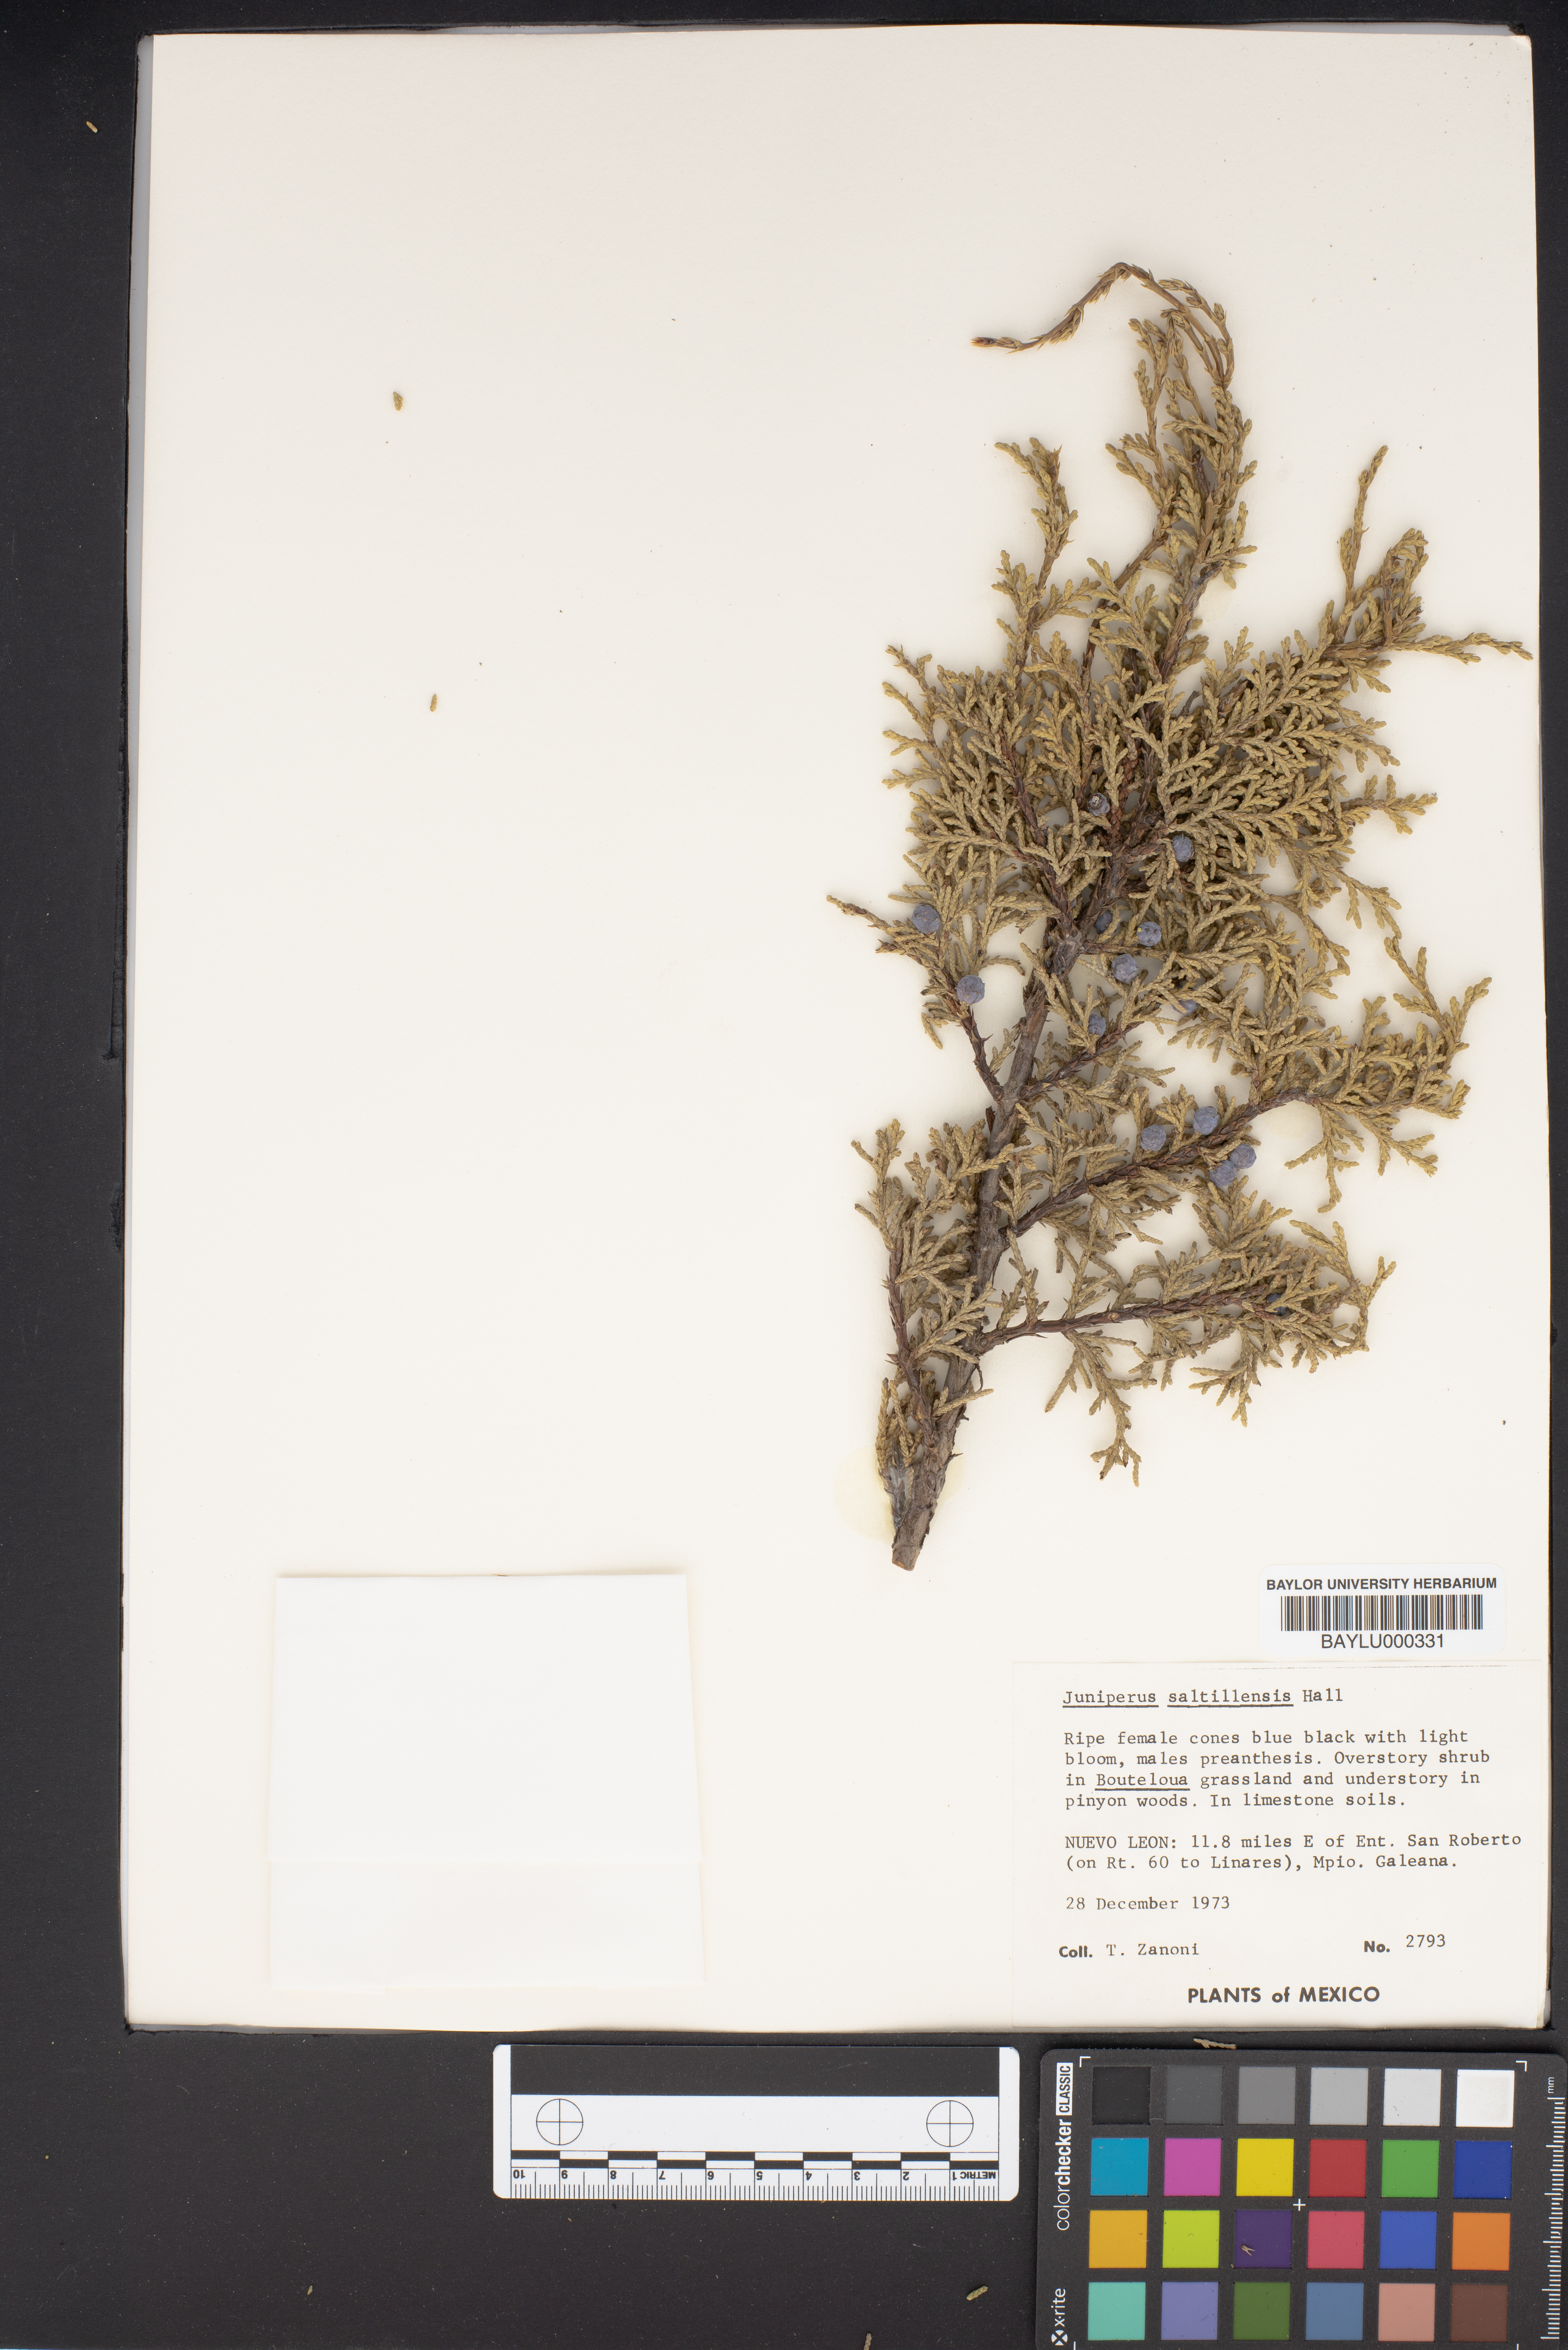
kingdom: Plantae
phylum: Tracheophyta
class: Pinopsida
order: Pinales
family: Cupressaceae
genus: Juniperus
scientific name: Juniperus saltillensis
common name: Saltillo juniper
